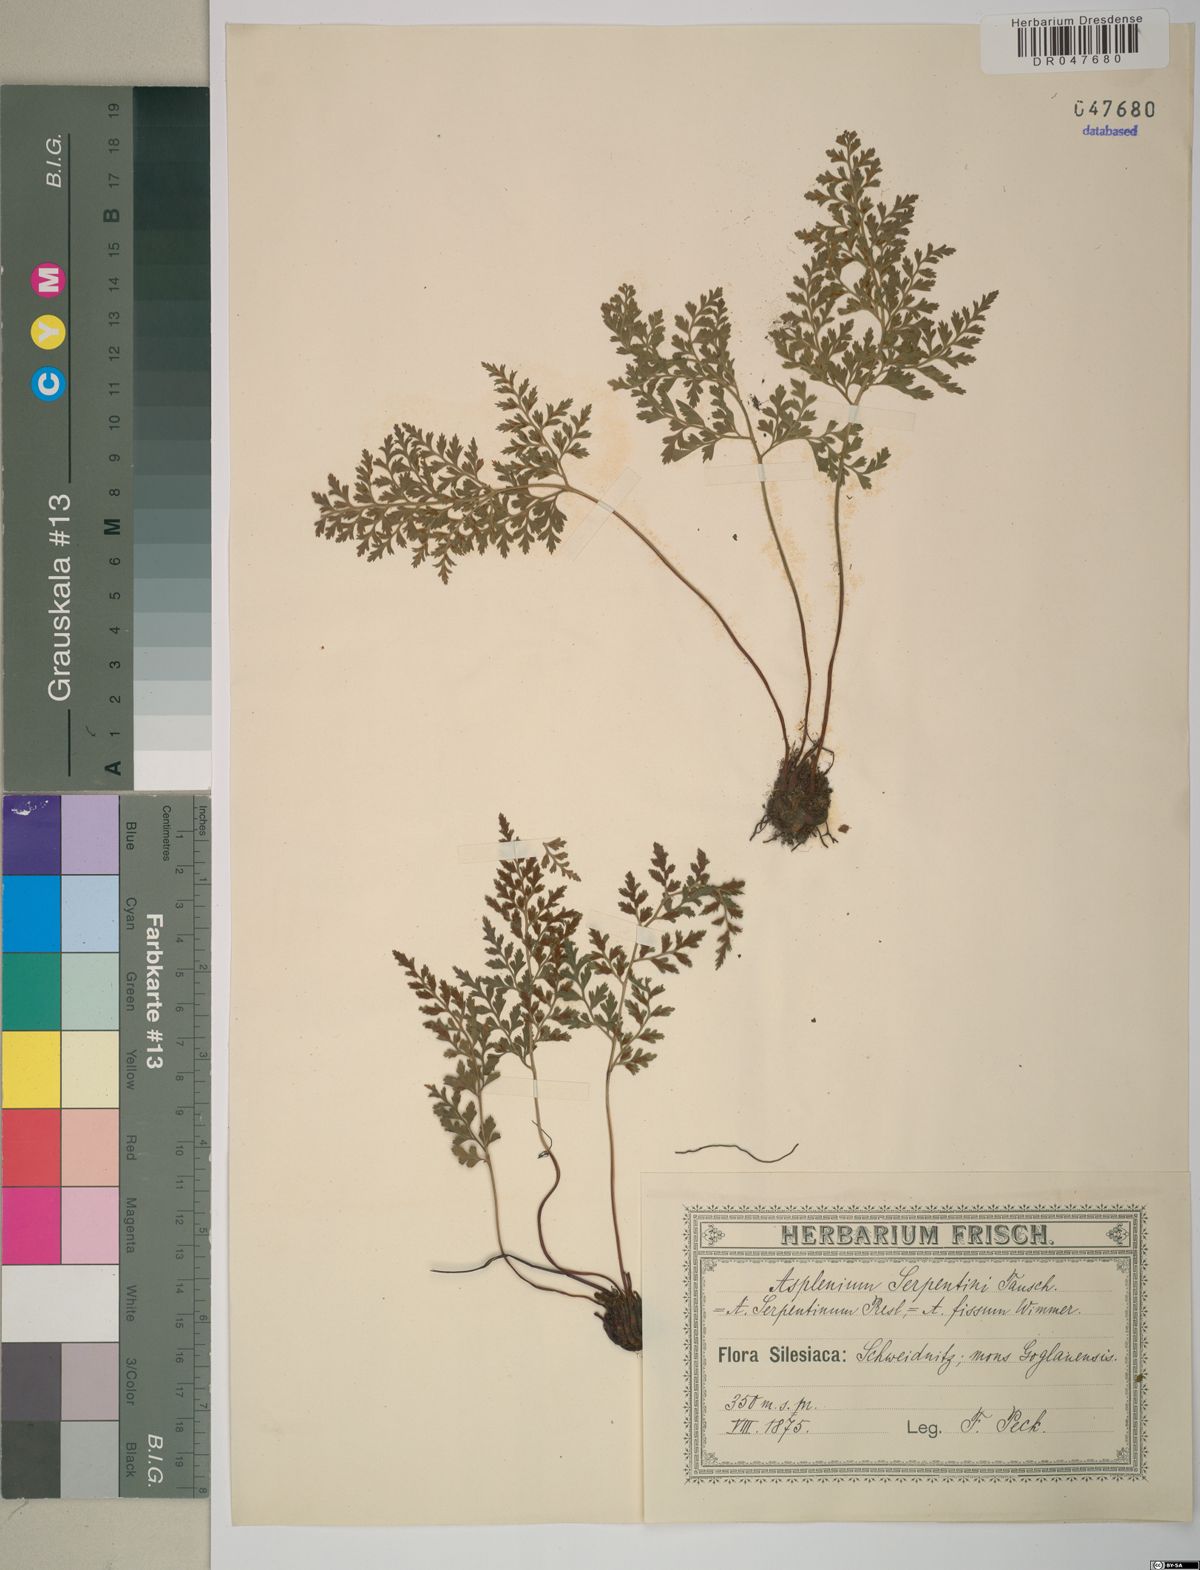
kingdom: Plantae
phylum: Tracheophyta
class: Polypodiopsida
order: Polypodiales
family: Aspleniaceae
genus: Asplenium
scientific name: Asplenium cuneifolium
